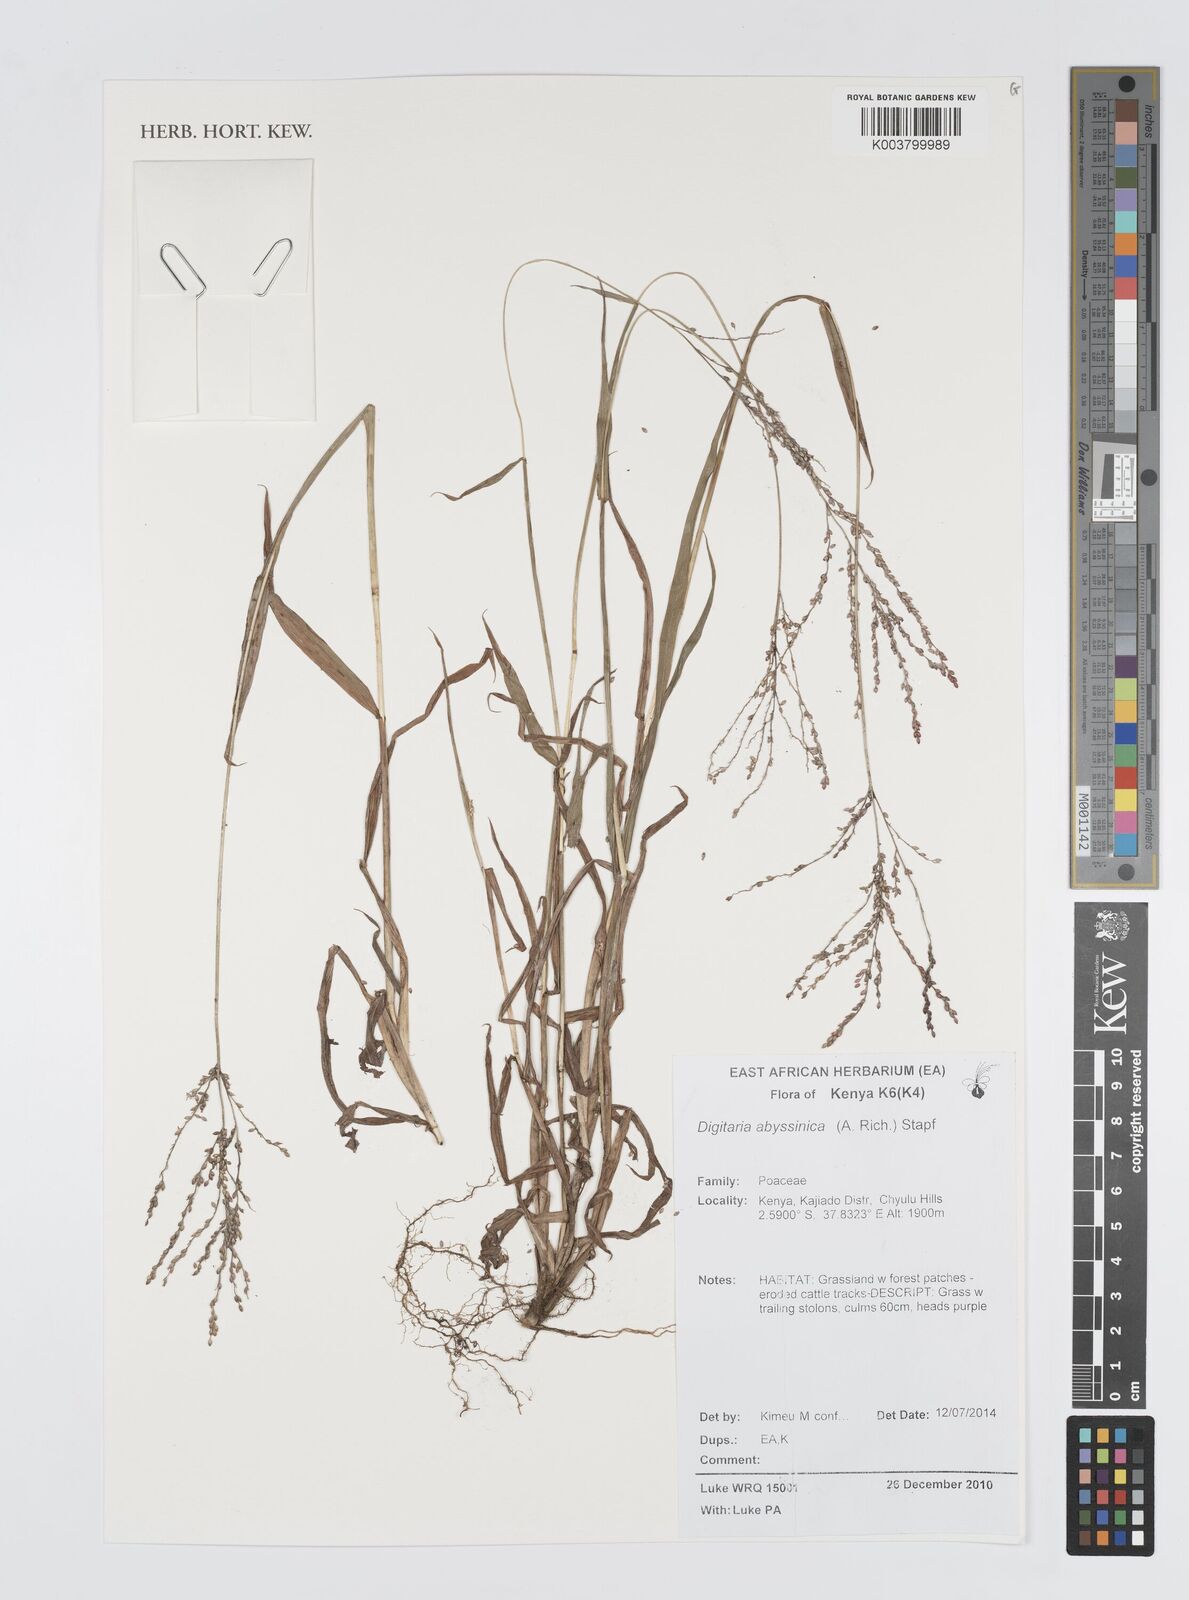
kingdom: Plantae
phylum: Tracheophyta
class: Liliopsida
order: Poales
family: Poaceae
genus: Digitaria
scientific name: Digitaria abyssinica
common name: African couchgrass
